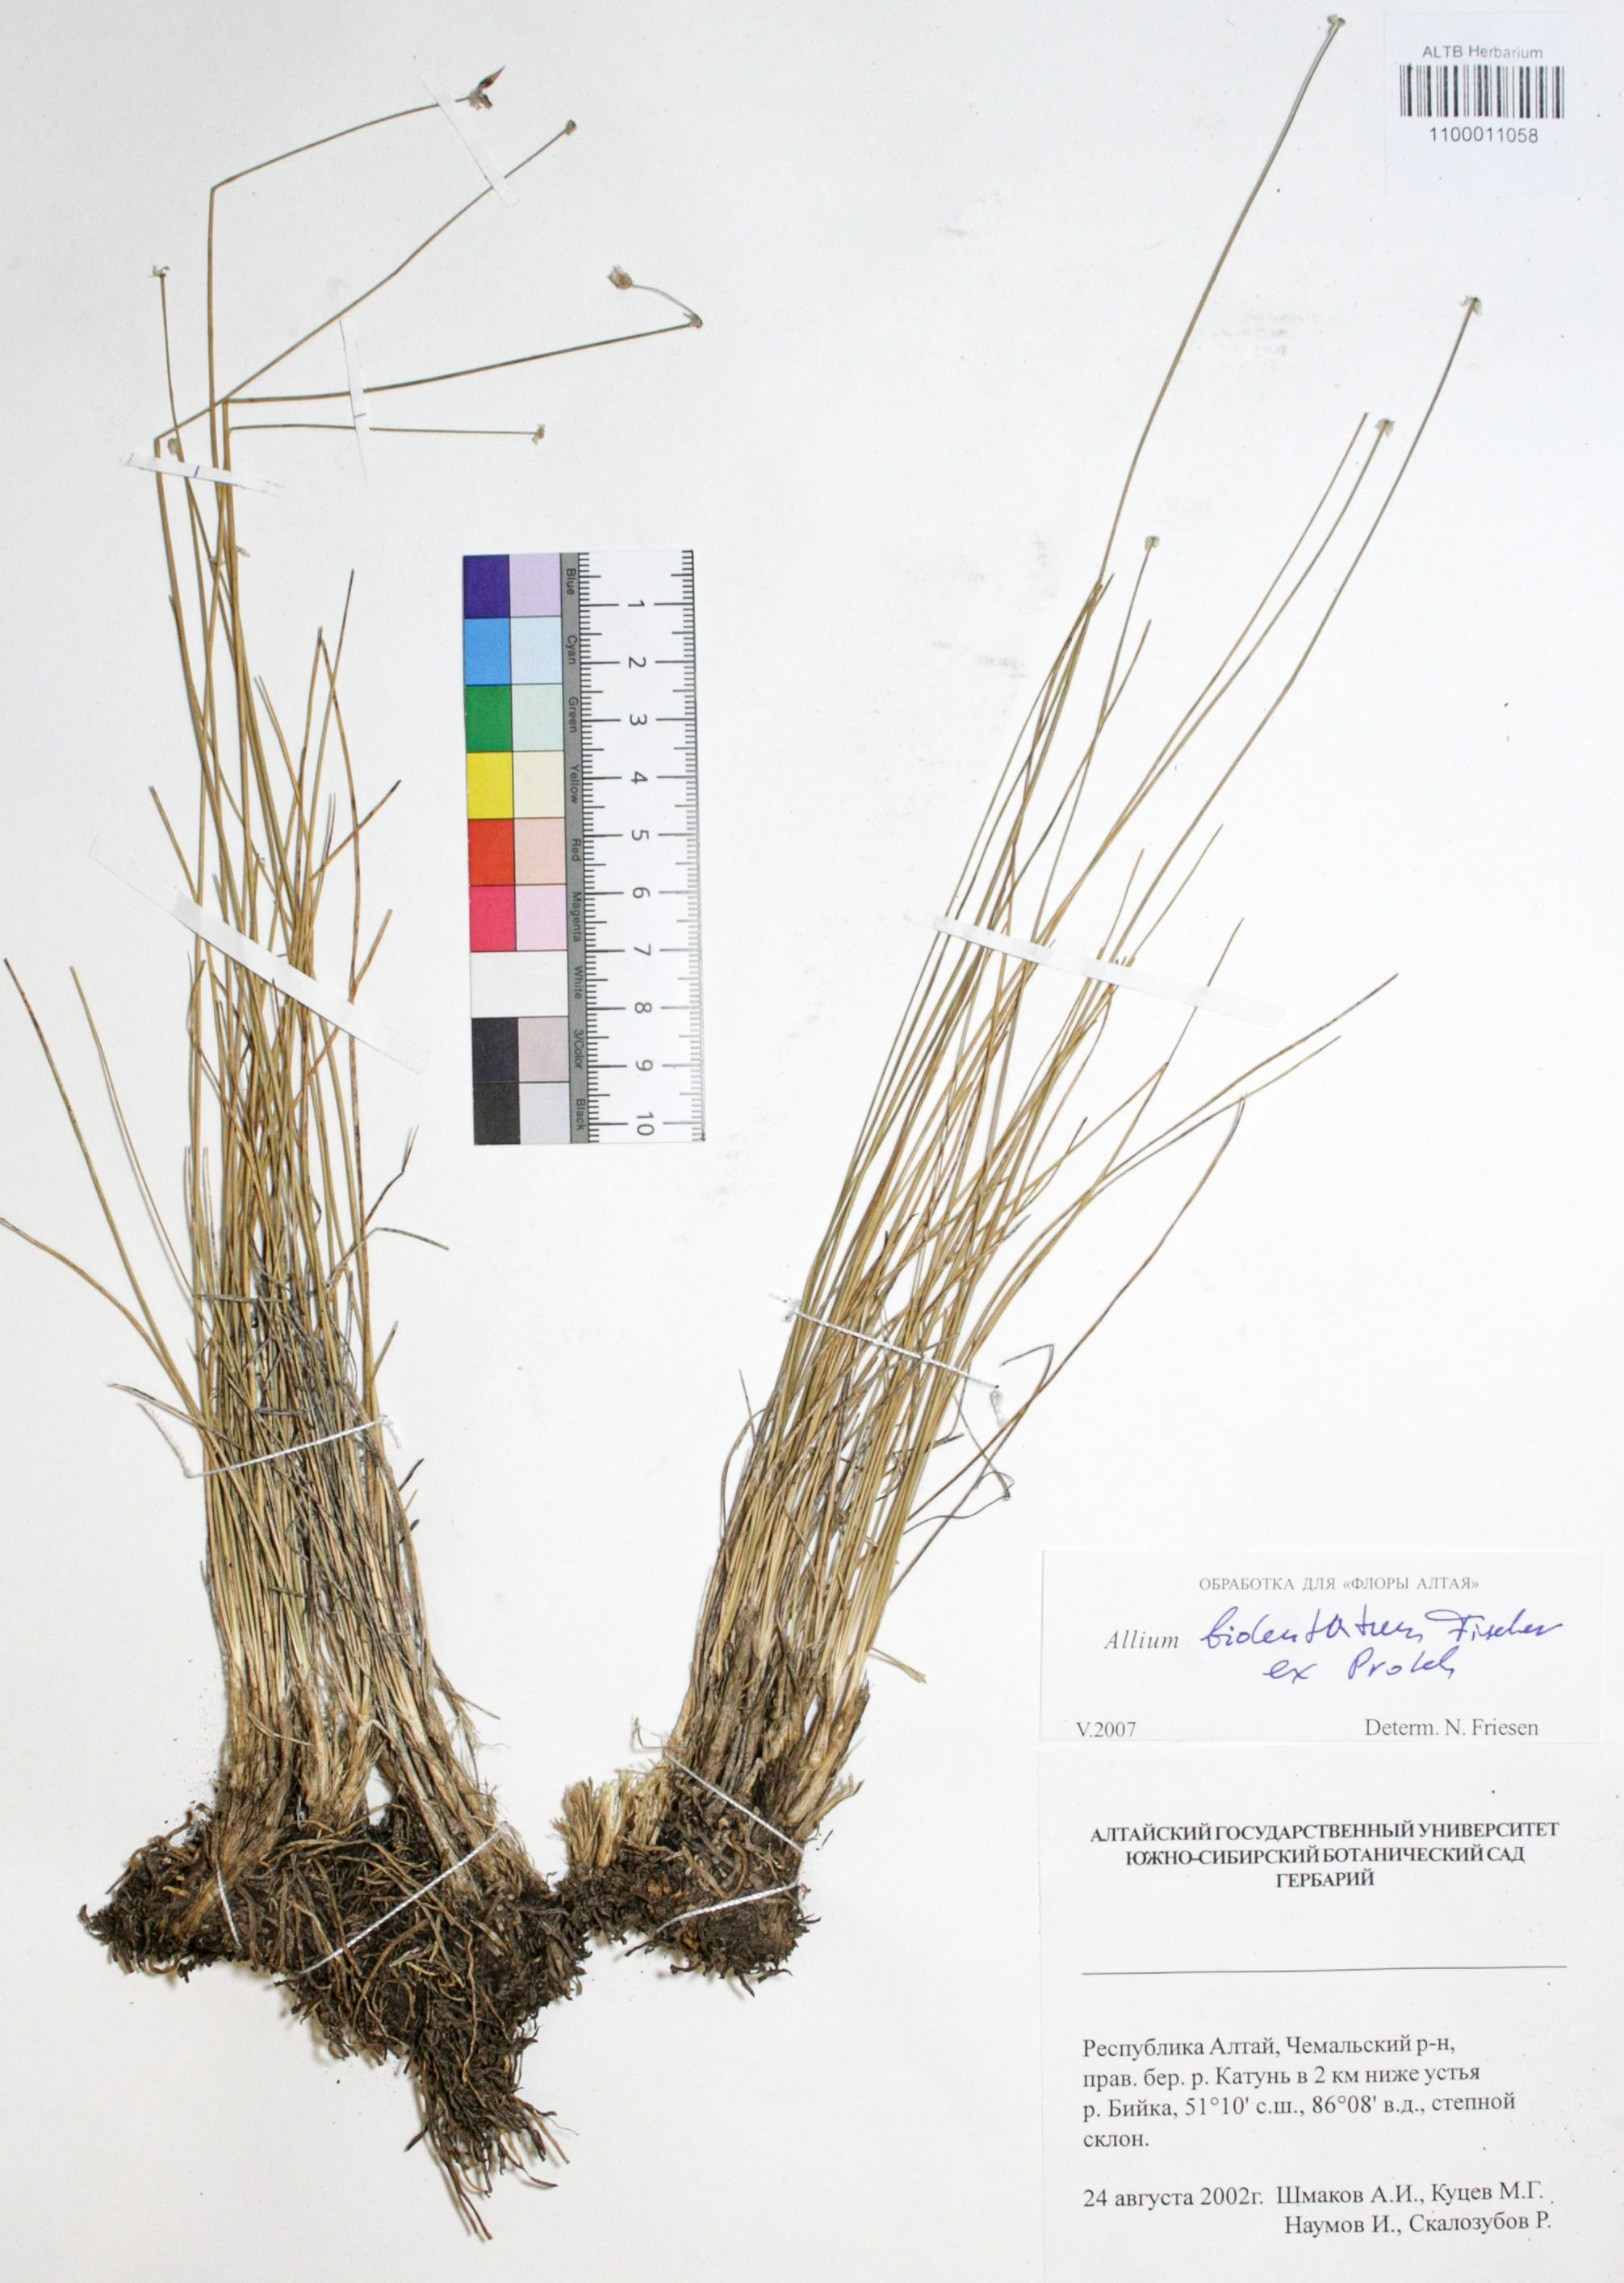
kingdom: Plantae
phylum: Tracheophyta
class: Liliopsida
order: Asparagales
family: Amaryllidaceae
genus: Allium
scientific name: Allium bidentatum
